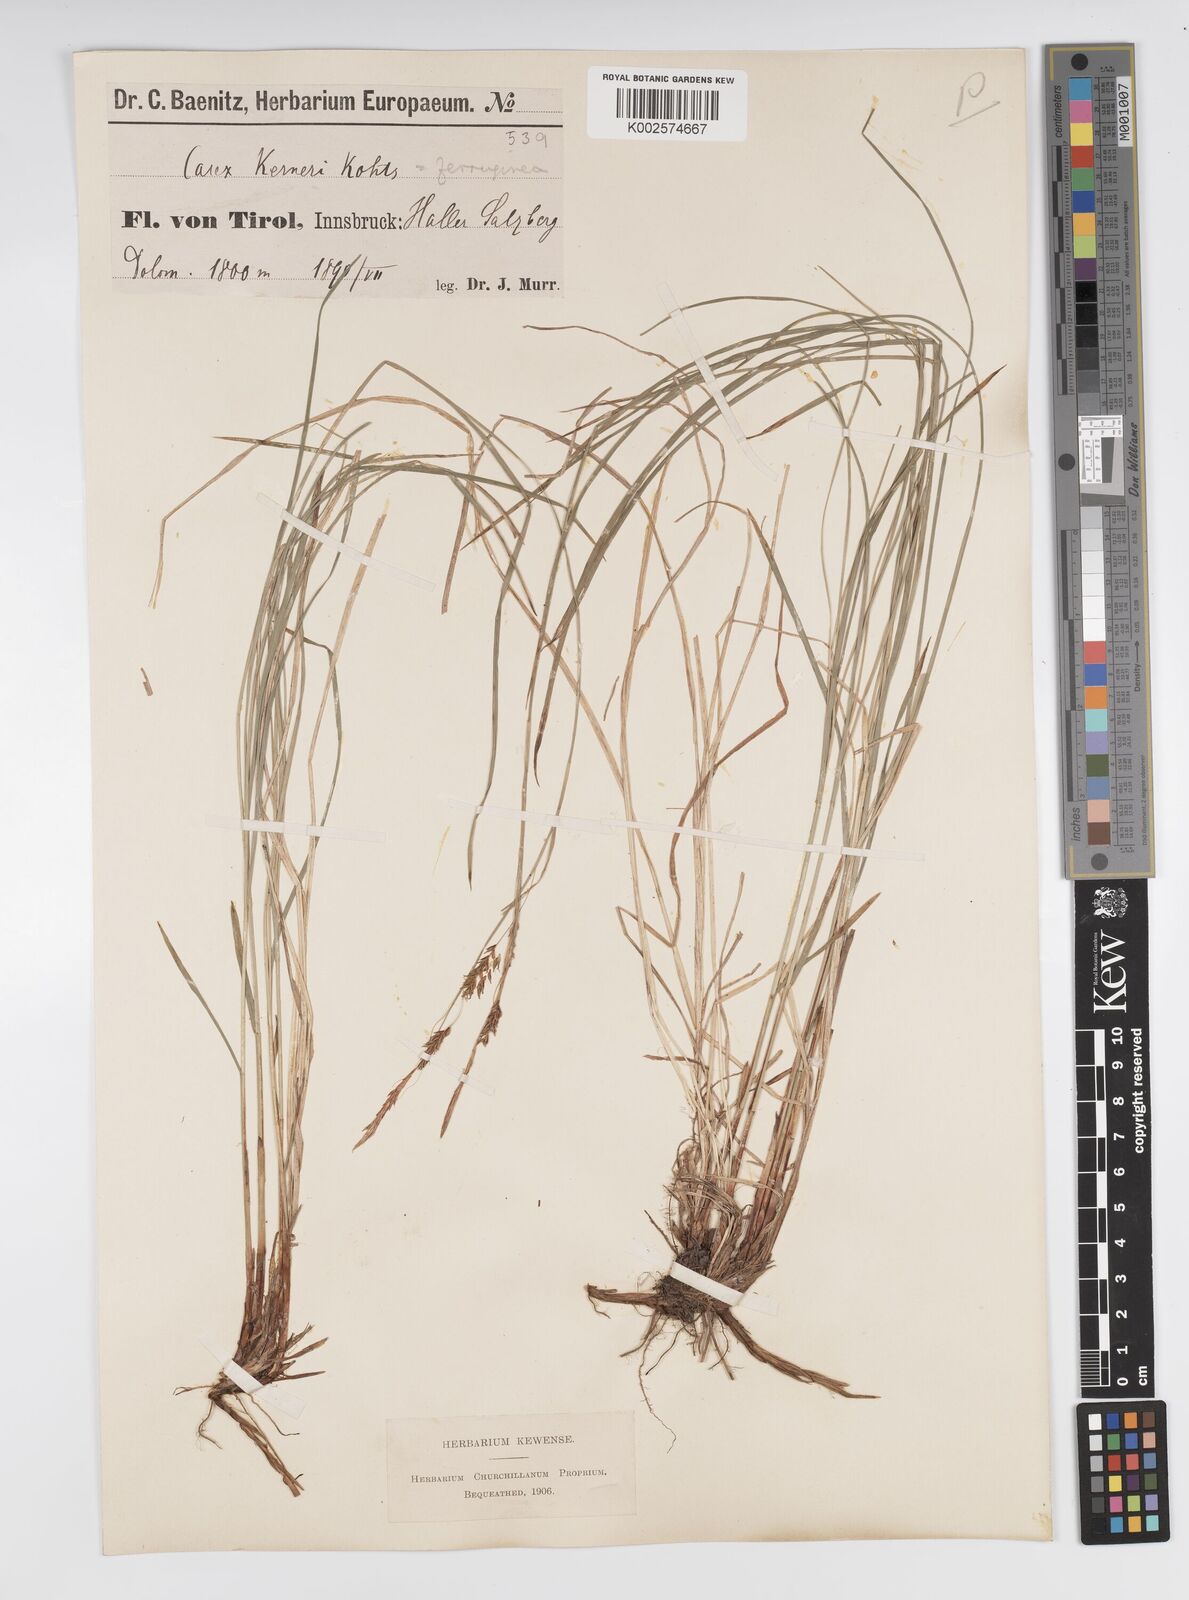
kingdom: Plantae
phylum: Tracheophyta
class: Liliopsida
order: Poales
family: Cyperaceae
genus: Carex
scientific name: Carex ferruginea
